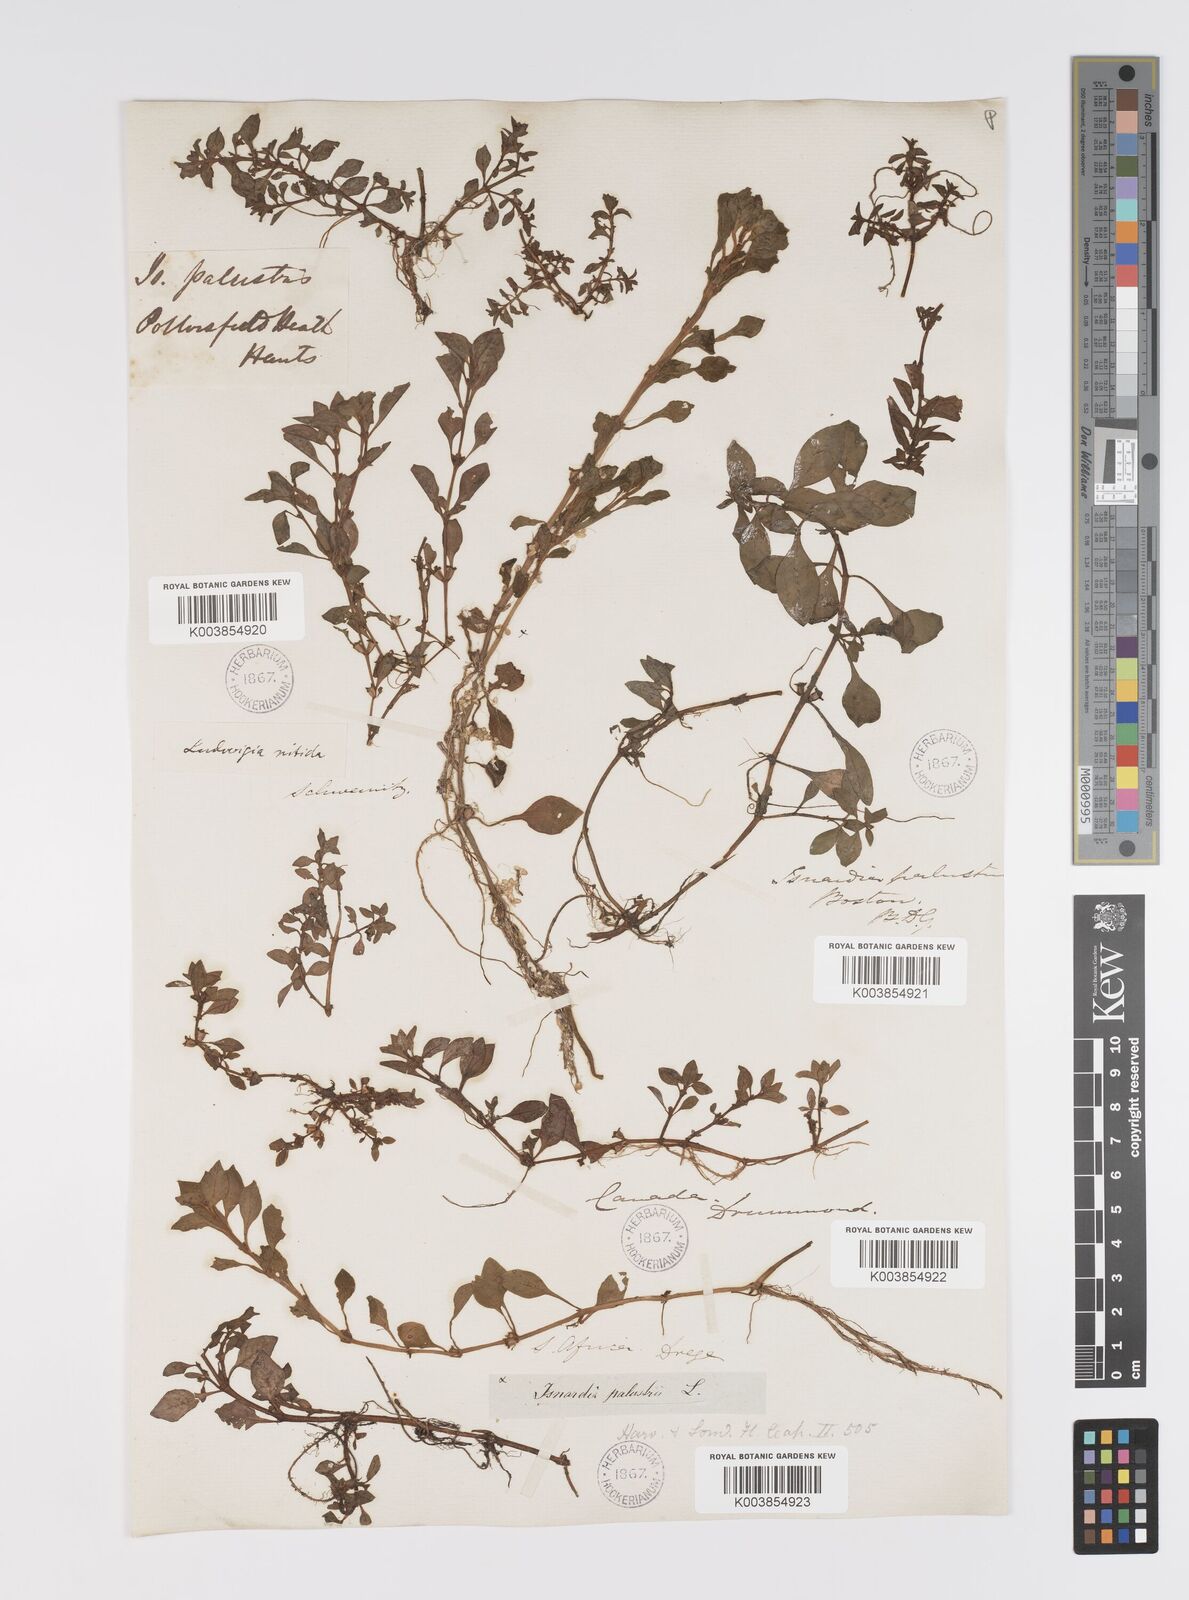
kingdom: Plantae
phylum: Tracheophyta
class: Magnoliopsida
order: Myrtales
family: Onagraceae
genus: Ludwigia
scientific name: Ludwigia palustris
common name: Hampshire-purslane
